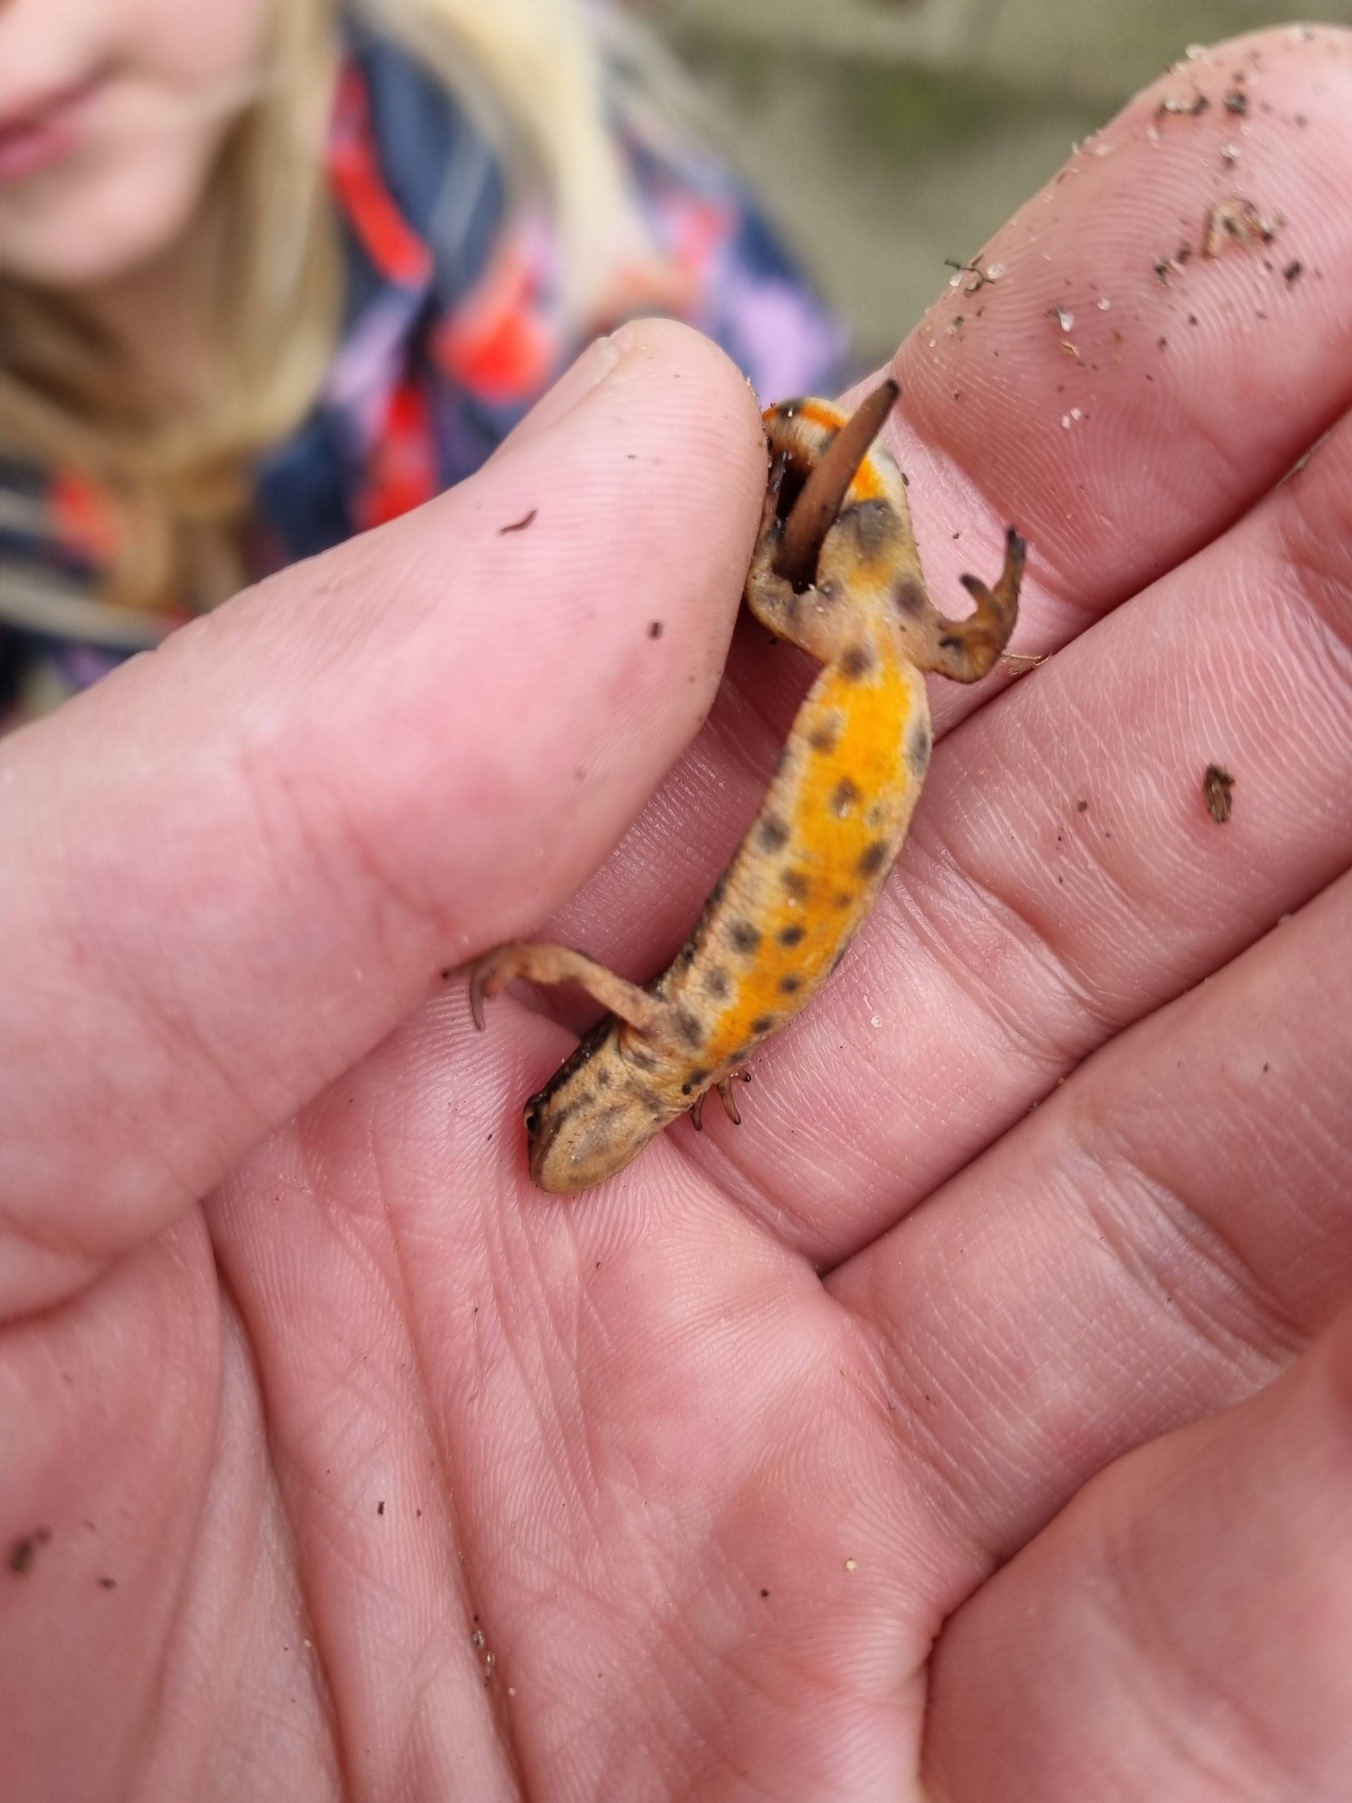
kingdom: Animalia
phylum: Chordata
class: Amphibia
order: Caudata
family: Salamandridae
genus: Lissotriton
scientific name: Lissotriton vulgaris
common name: Lille vandsalamander
